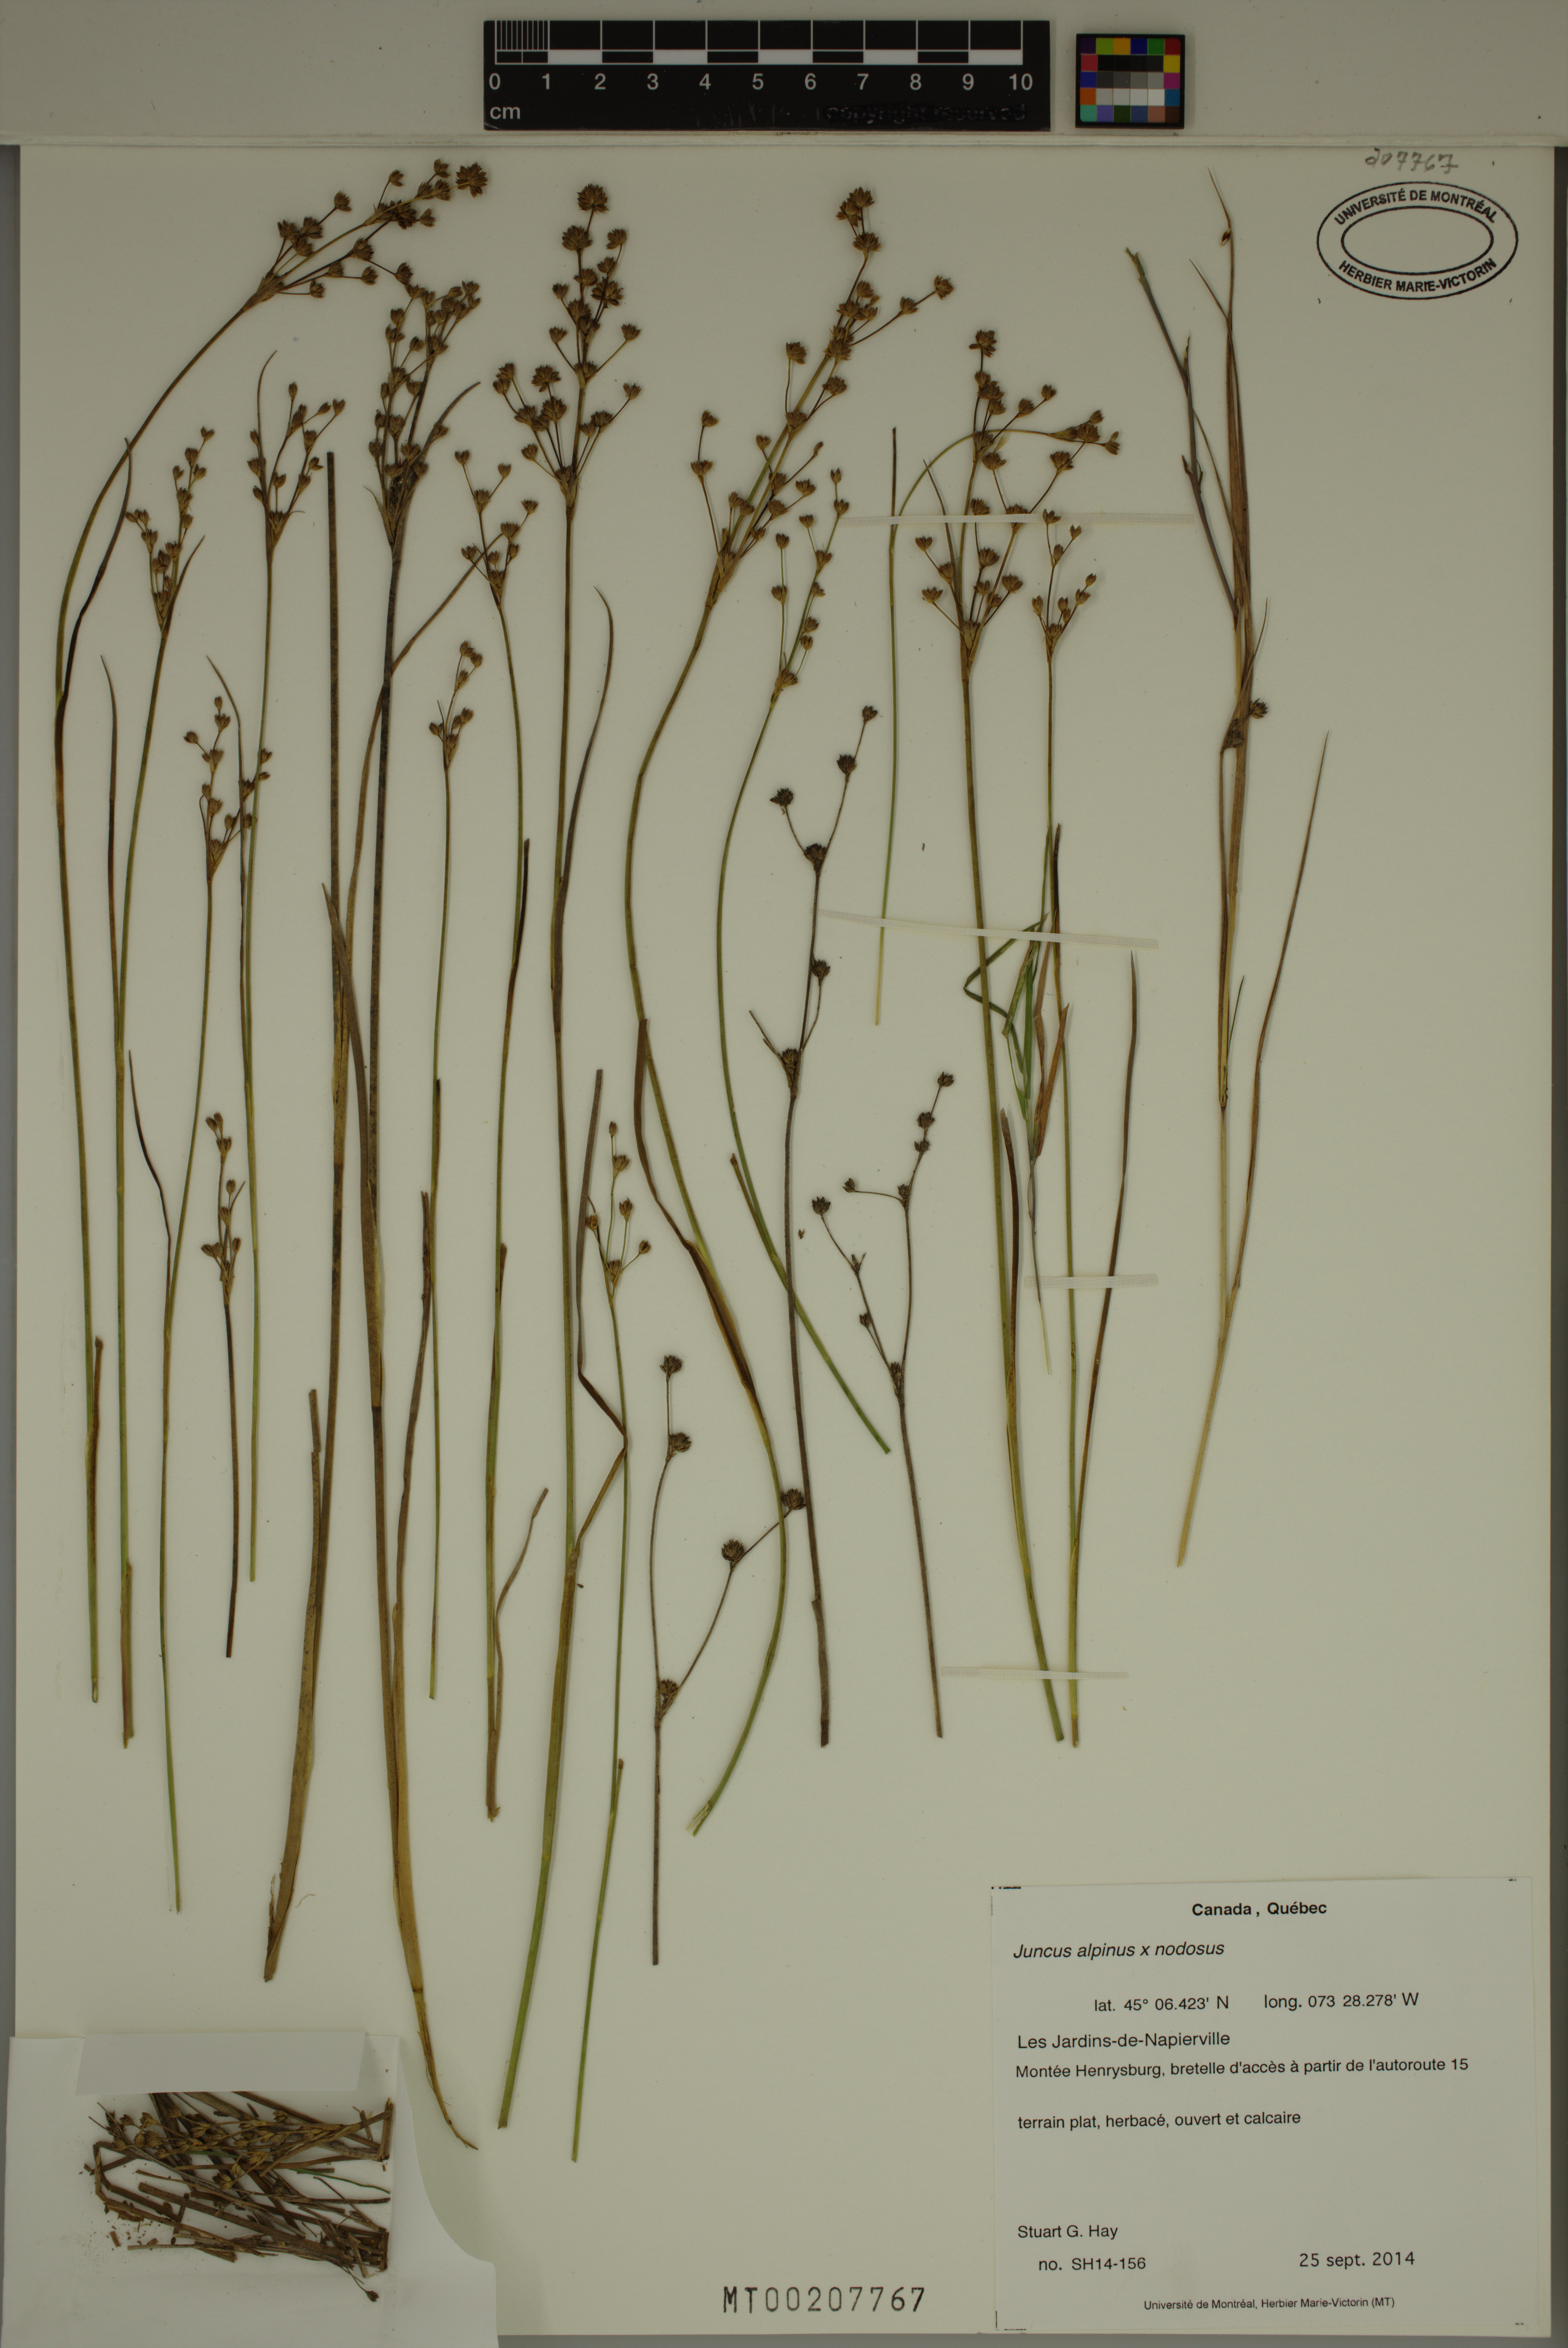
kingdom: Plantae
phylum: Tracheophyta
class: Liliopsida
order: Poales
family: Juncaceae
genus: Juncus
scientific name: Juncus nodosiformis
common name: Hybrid rush
